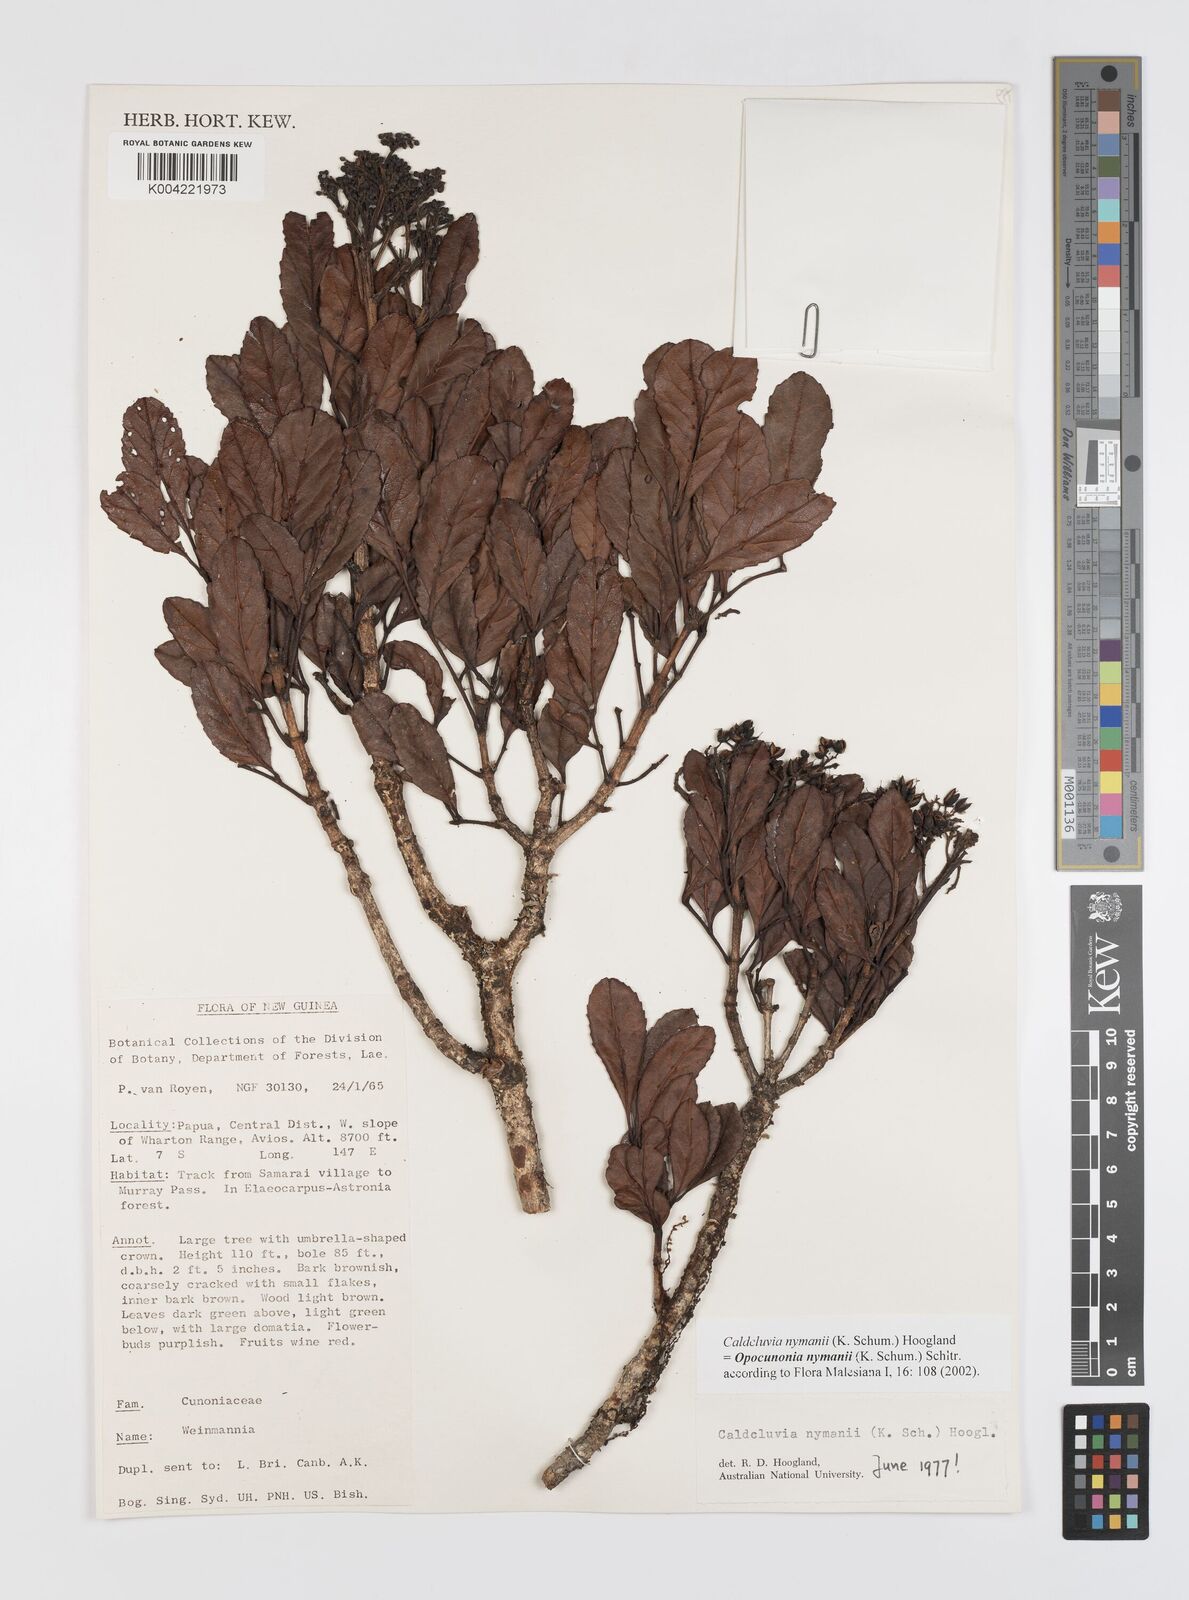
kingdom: Plantae
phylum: Tracheophyta
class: Magnoliopsida
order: Oxalidales
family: Cunoniaceae
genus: Opocunonia
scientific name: Opocunonia nymanii
